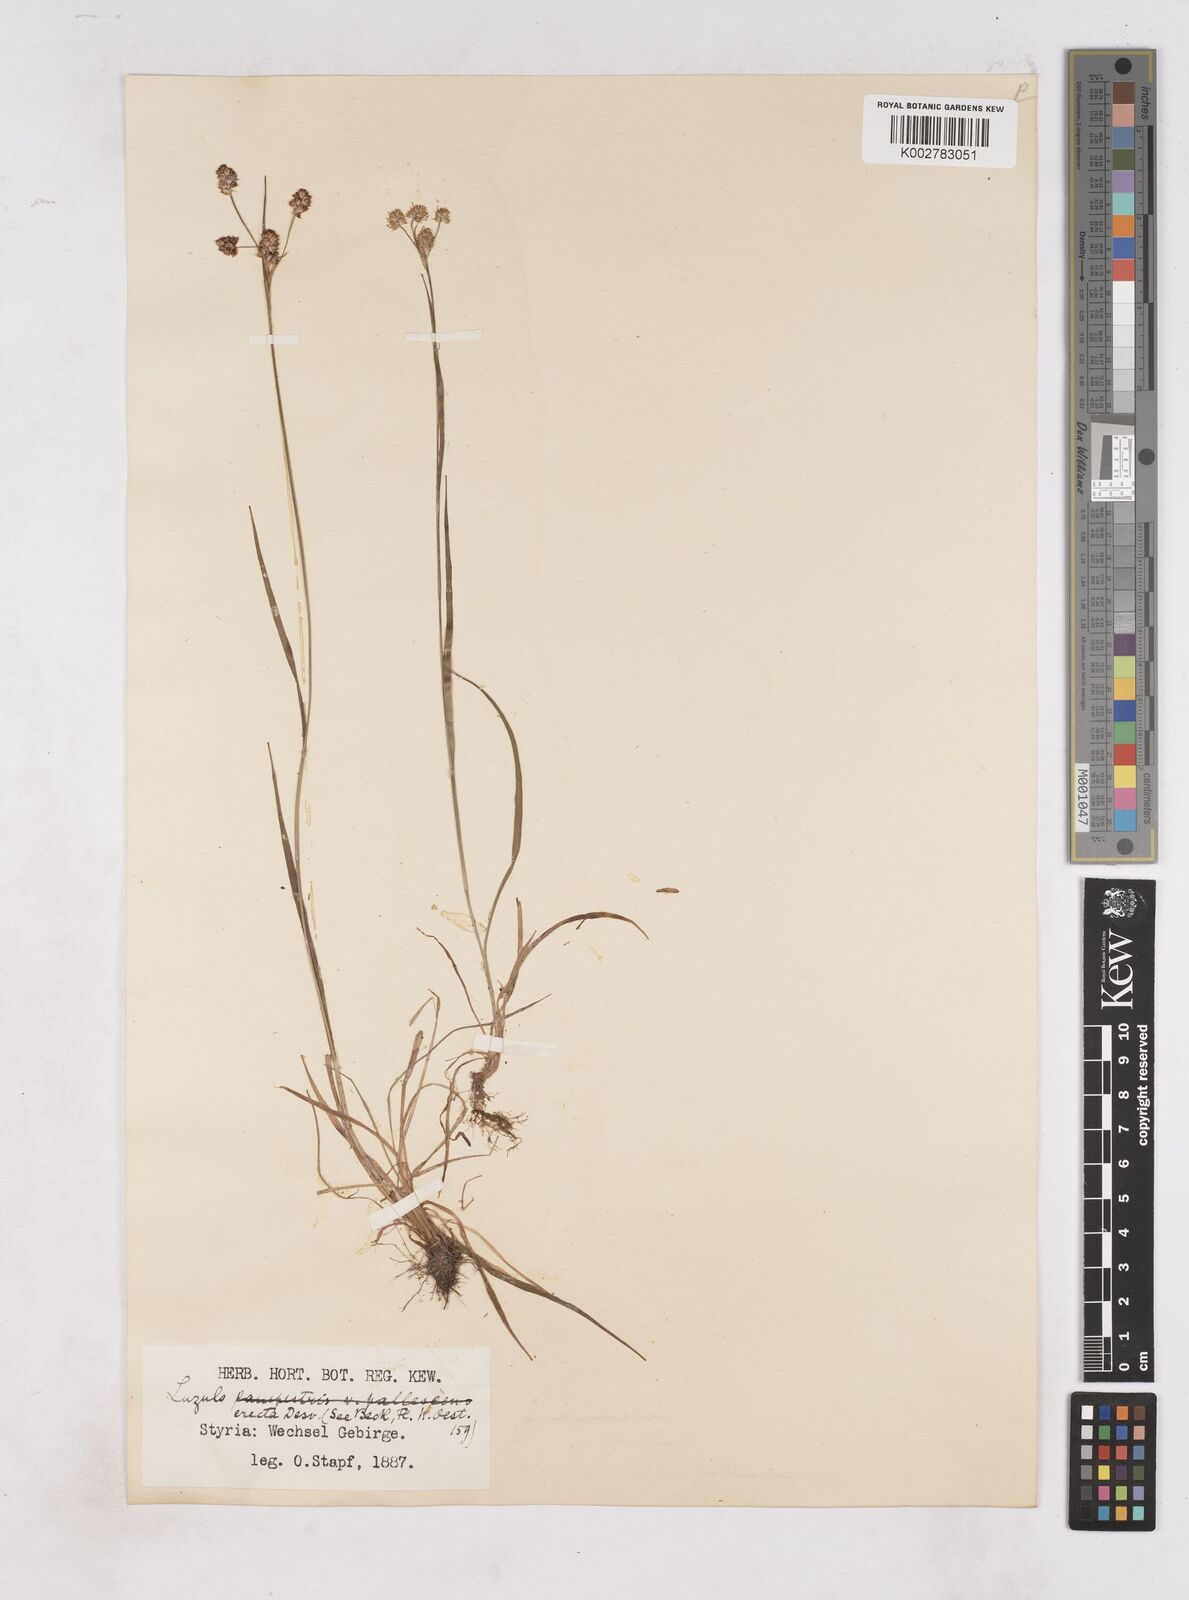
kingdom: Plantae
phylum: Tracheophyta
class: Liliopsida
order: Poales
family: Juncaceae
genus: Luzula
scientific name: Luzula campestris
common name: Field wood-rush
